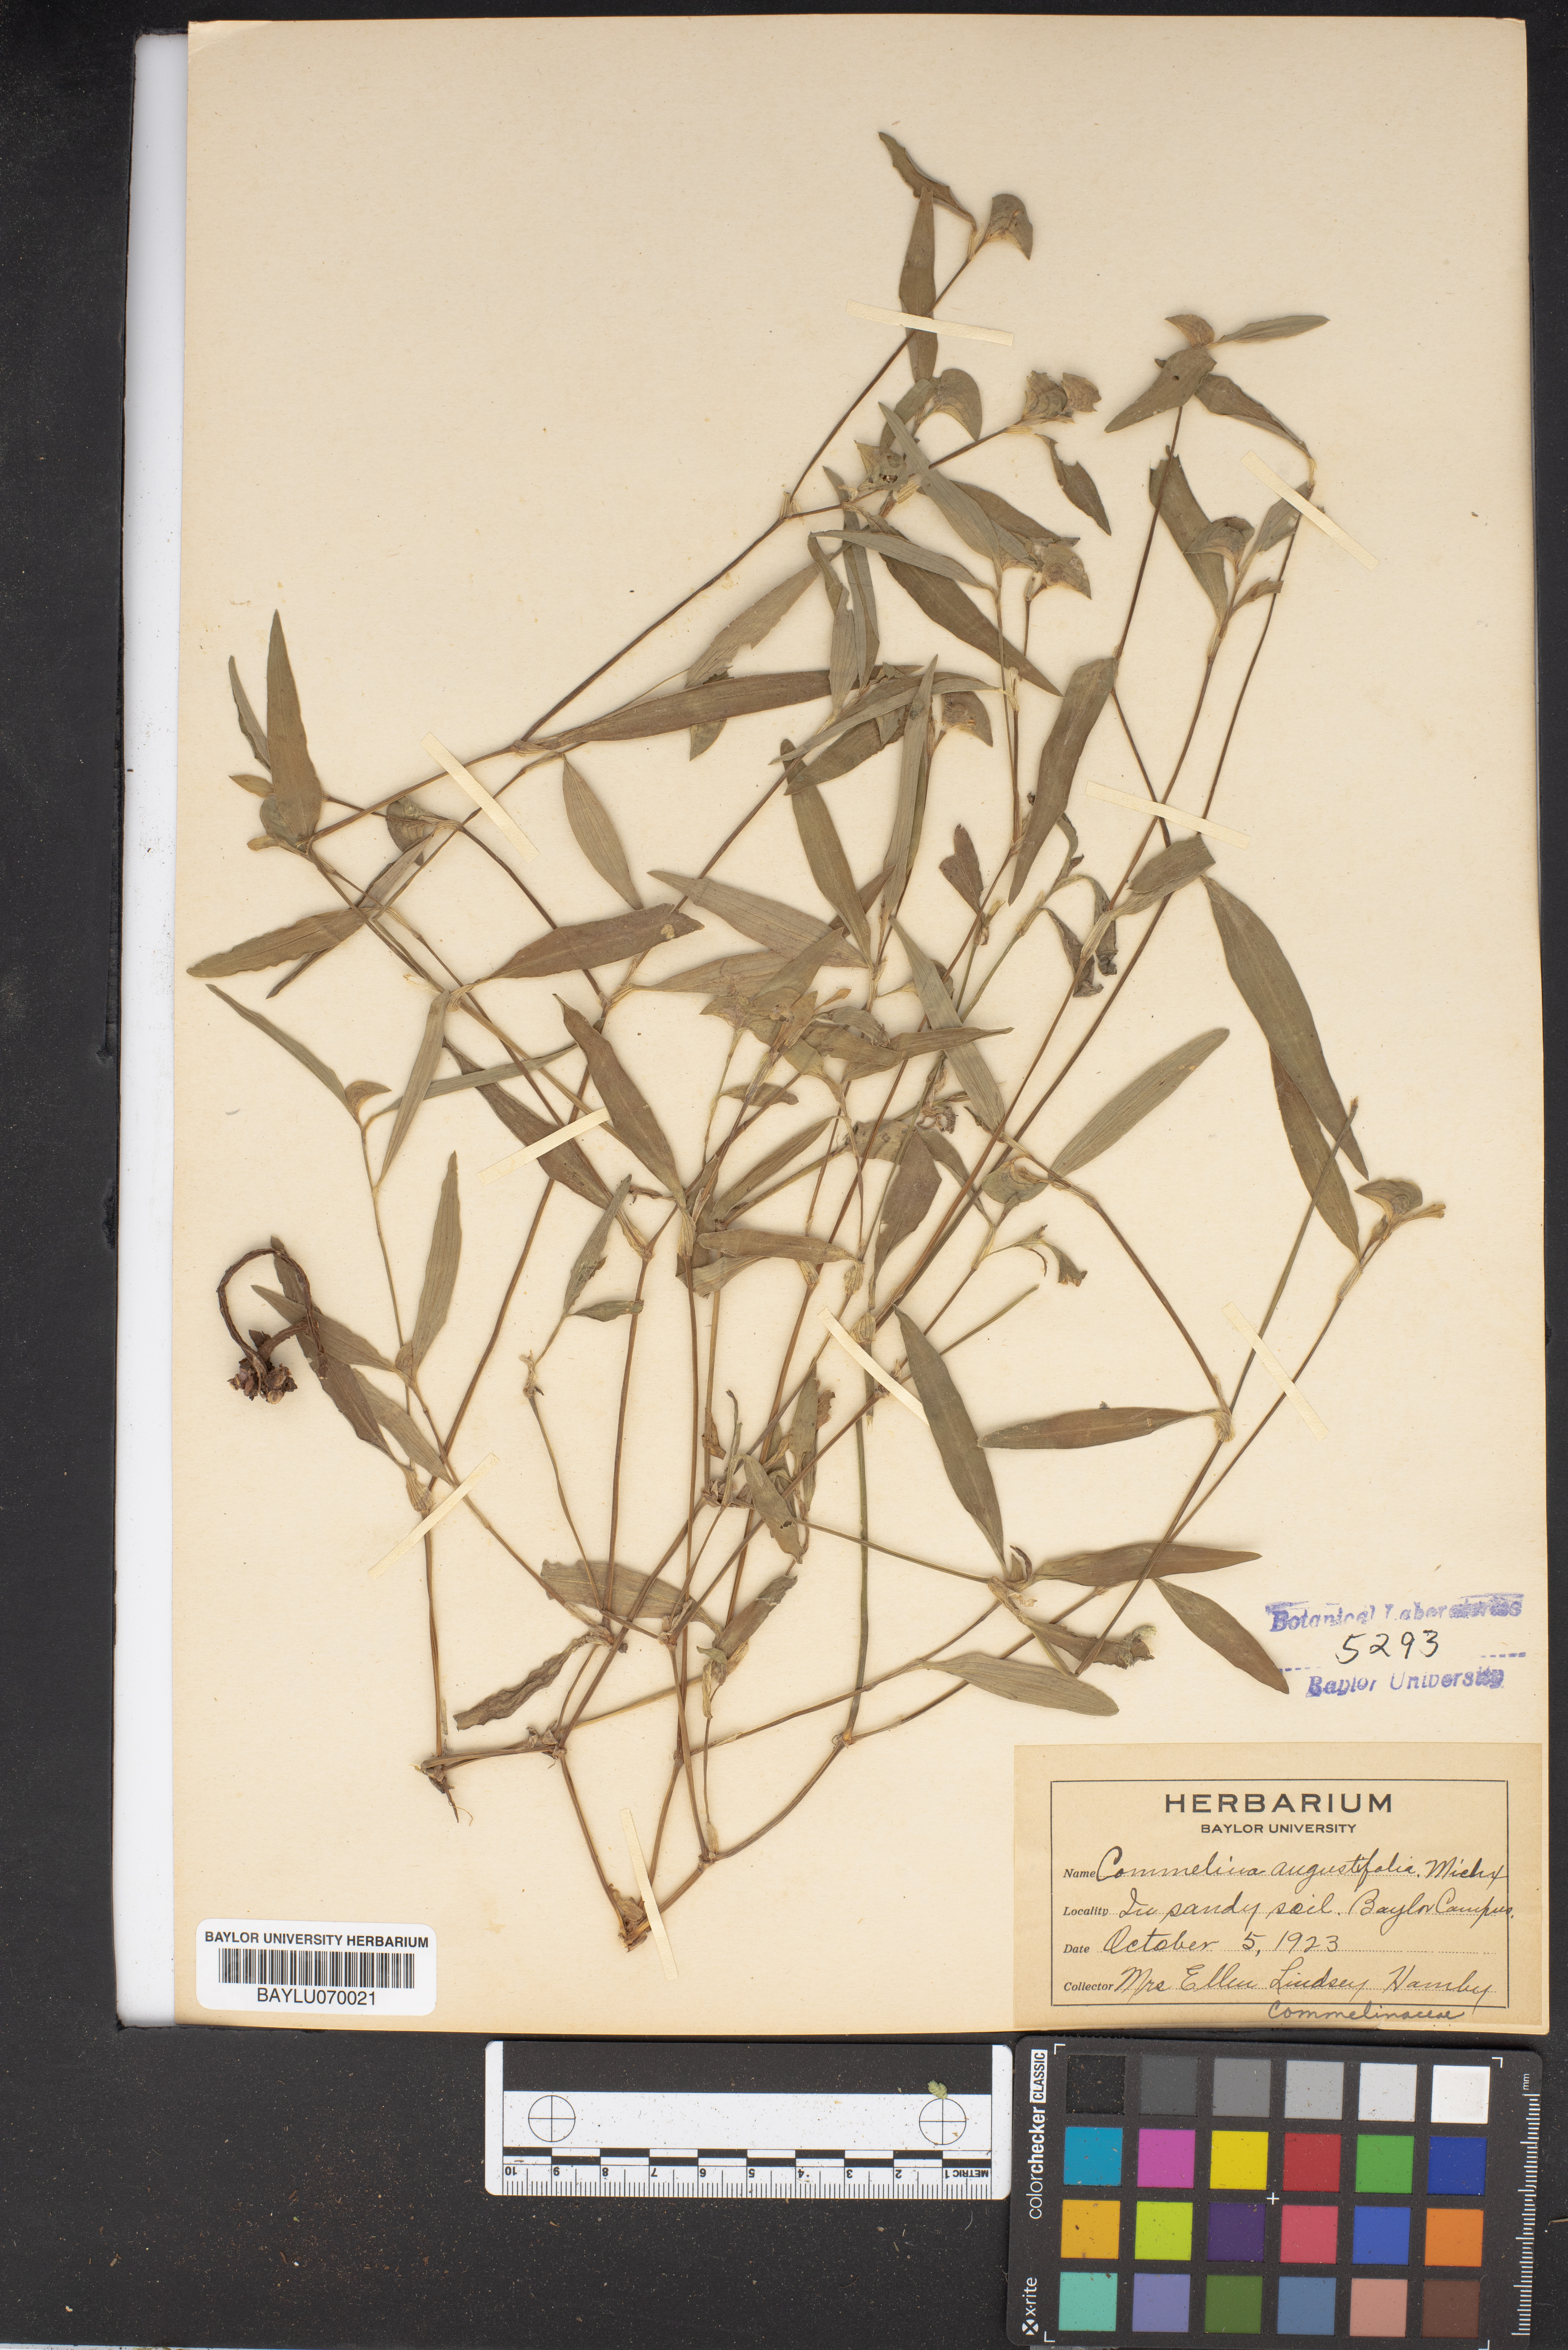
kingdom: Plantae
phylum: Tracheophyta
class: Liliopsida
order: Commelinales
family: Commelinaceae
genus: Commelina
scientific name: Commelina erecta
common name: Blousel blommetjie
